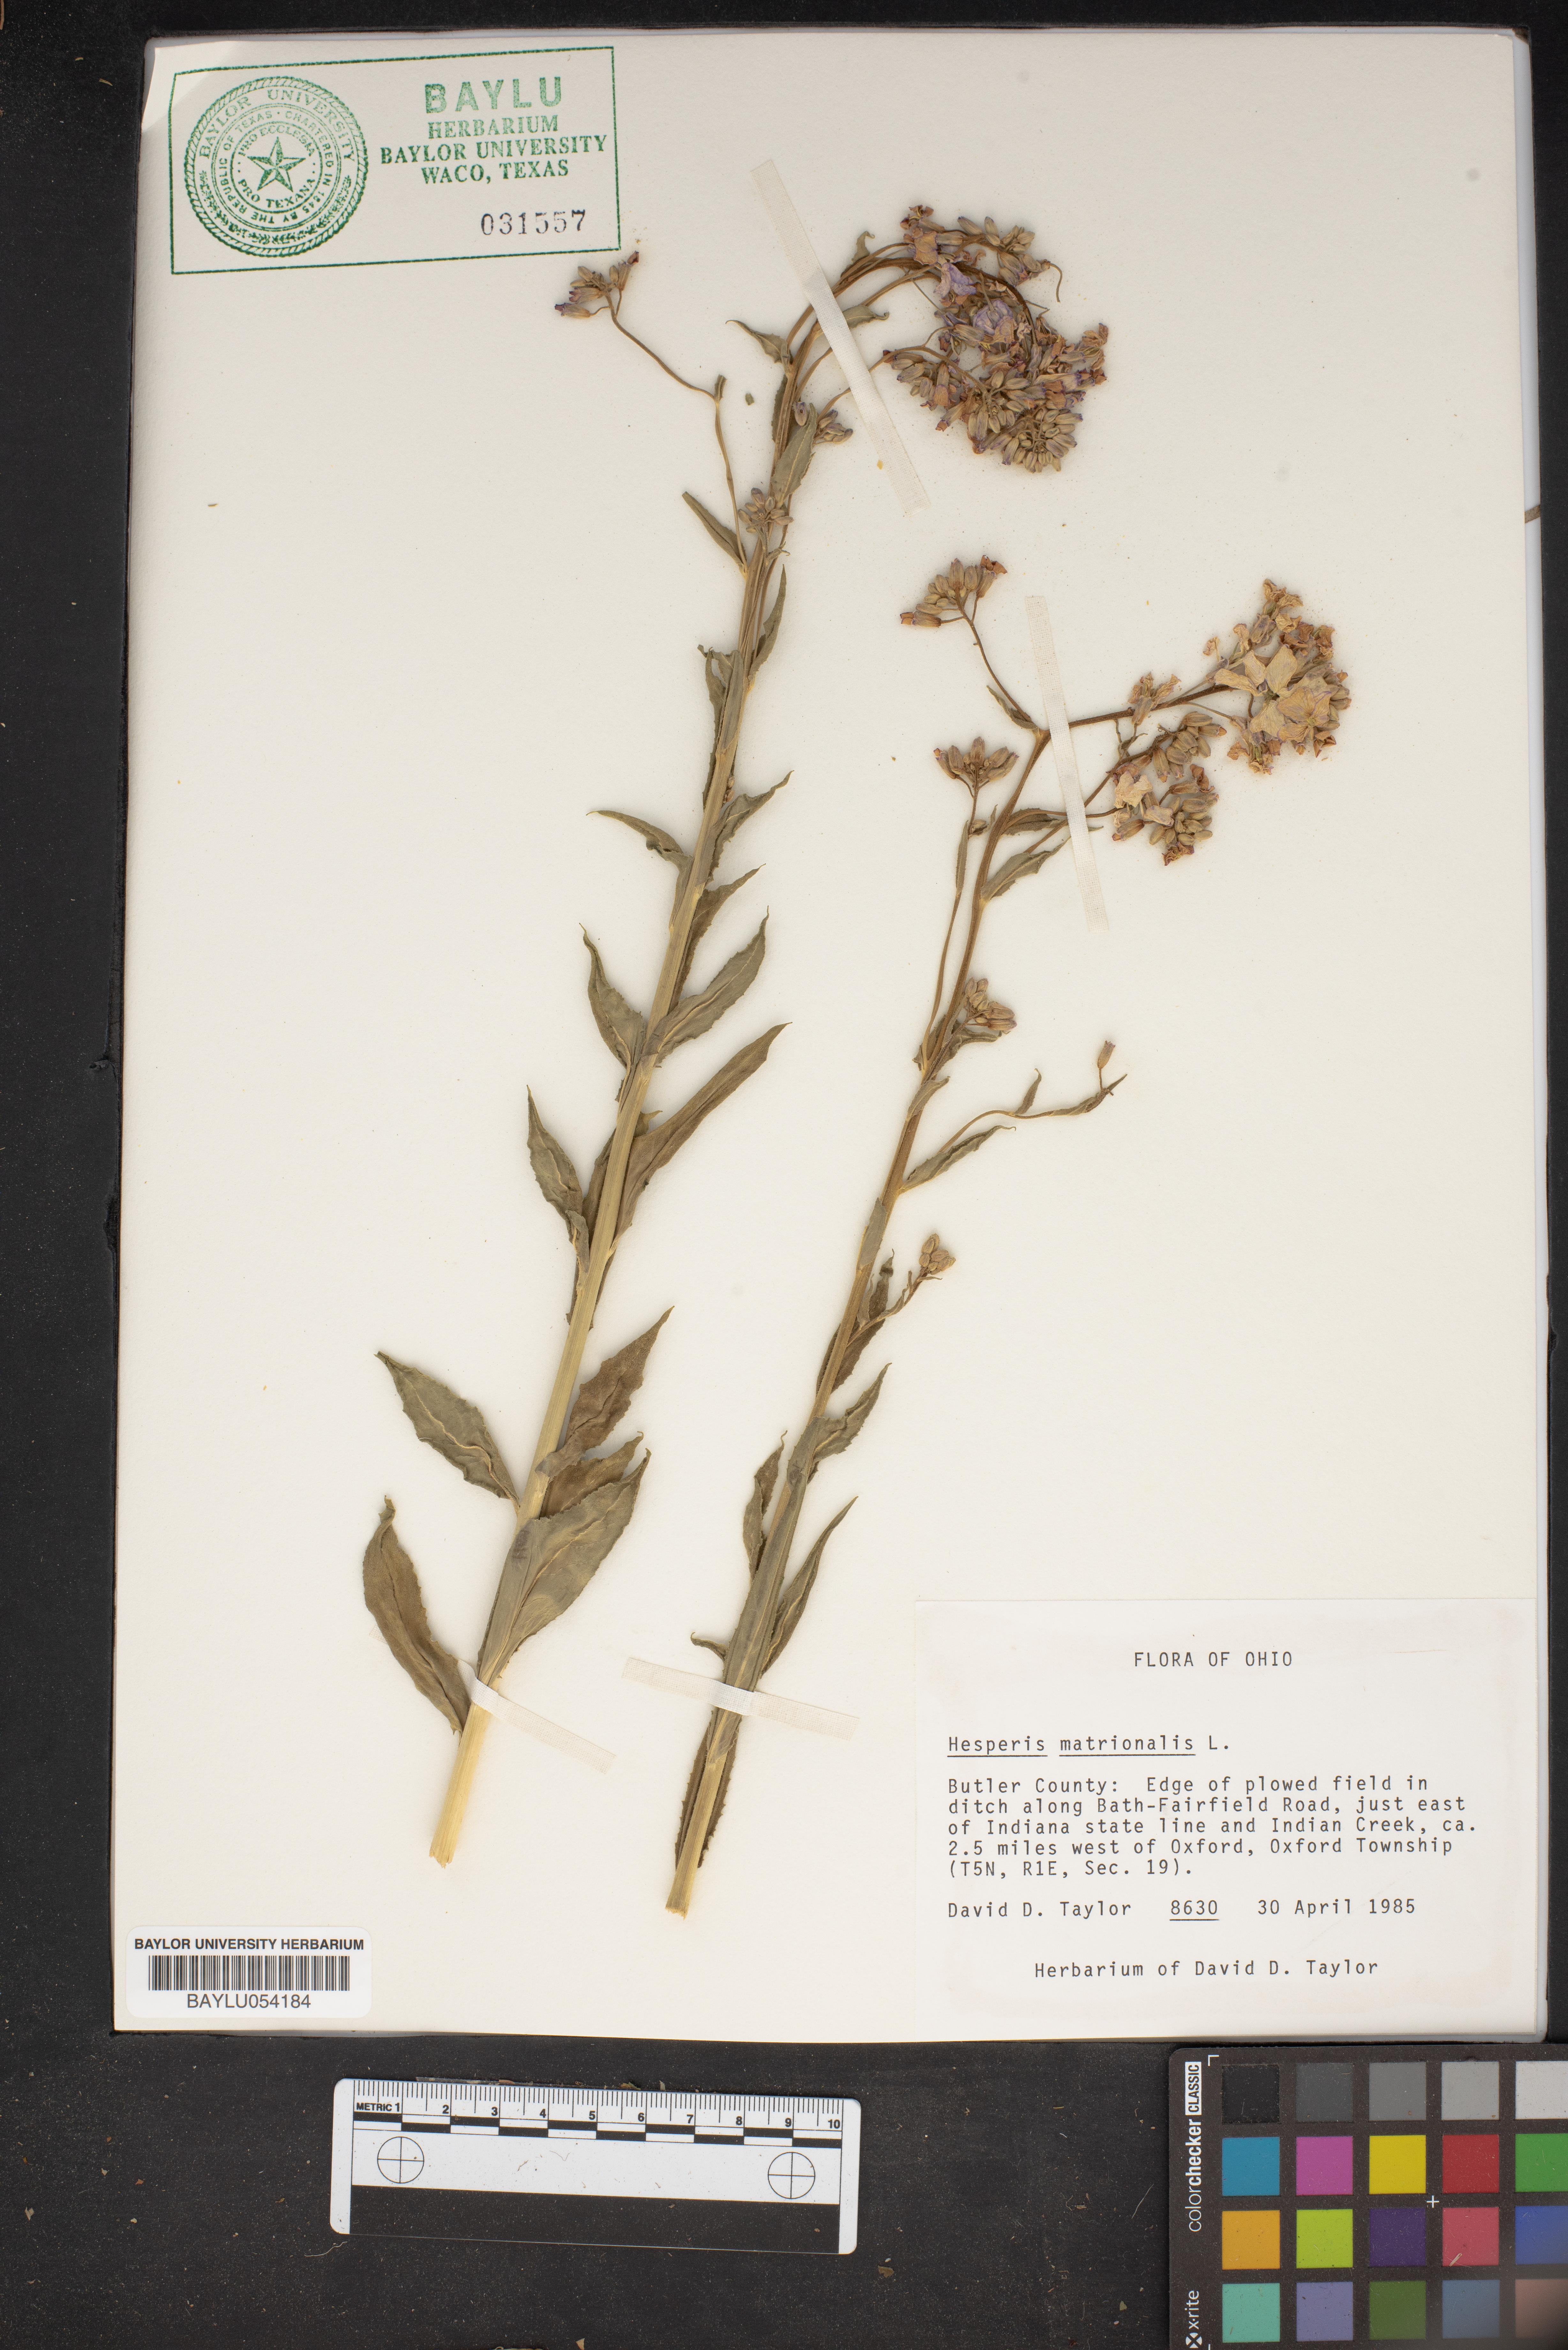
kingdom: Plantae
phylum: Tracheophyta
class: Magnoliopsida
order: Brassicales
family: Brassicaceae
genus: Hesperis
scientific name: Hesperis matronalis
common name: Dame's-violet
